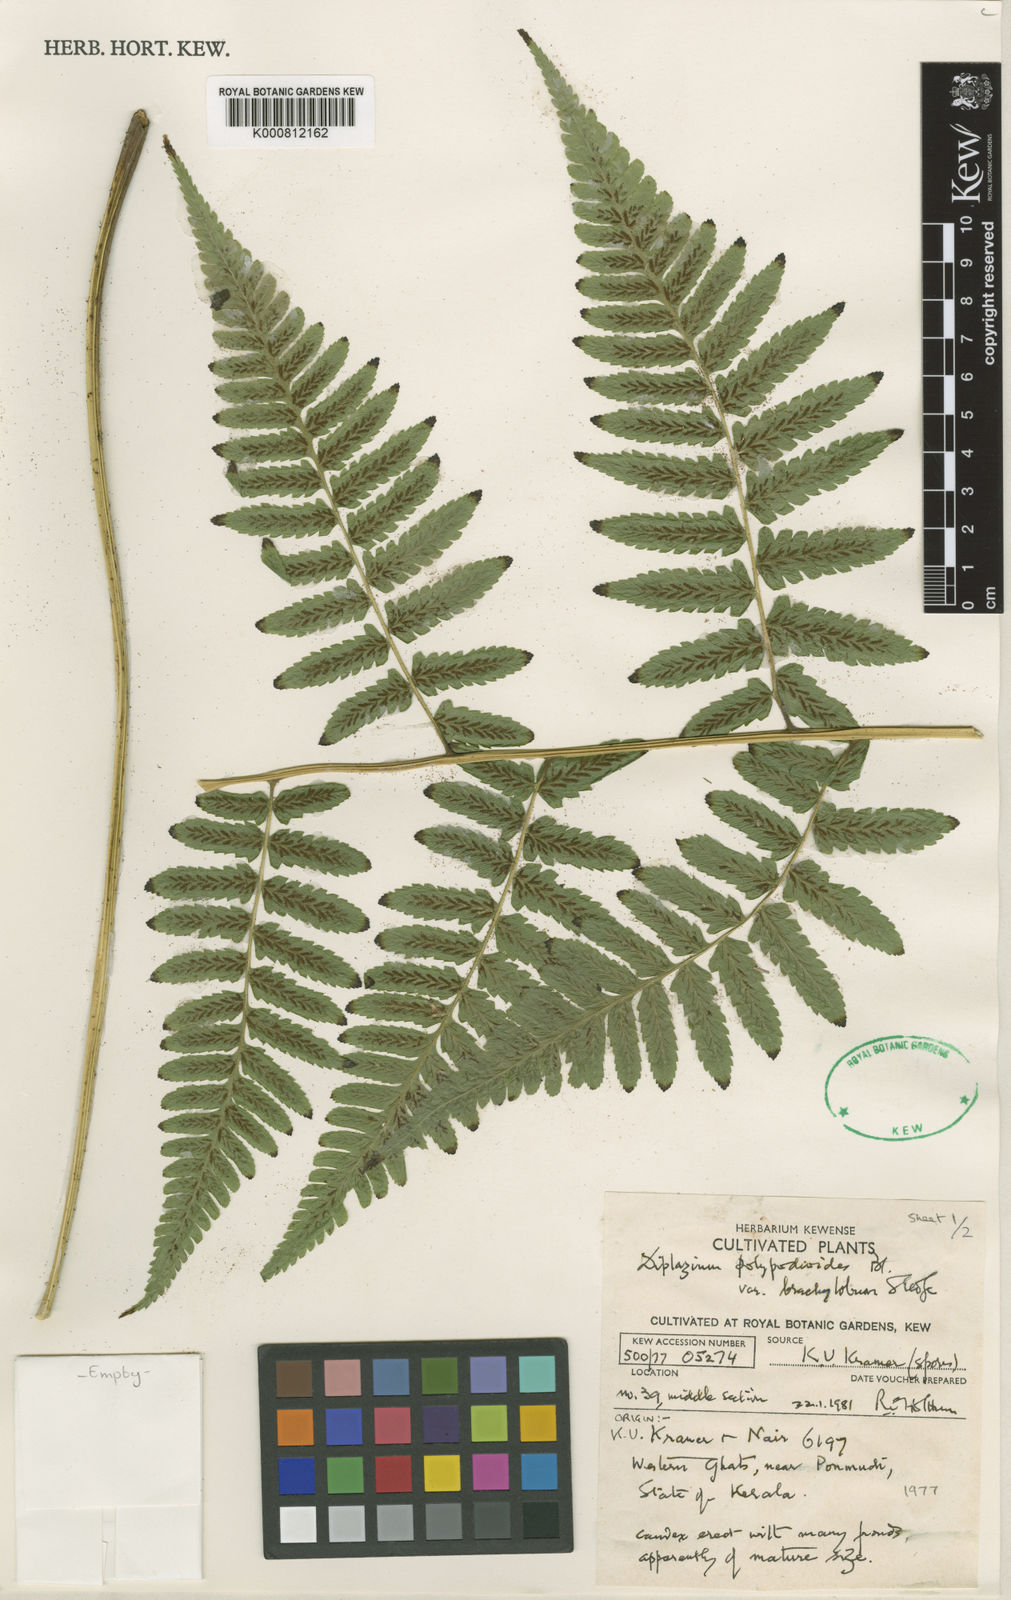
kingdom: Plantae
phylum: Tracheophyta
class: Polypodiopsida
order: Polypodiales
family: Athyriaceae
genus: Diplazium
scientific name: Diplazium polypodioides
